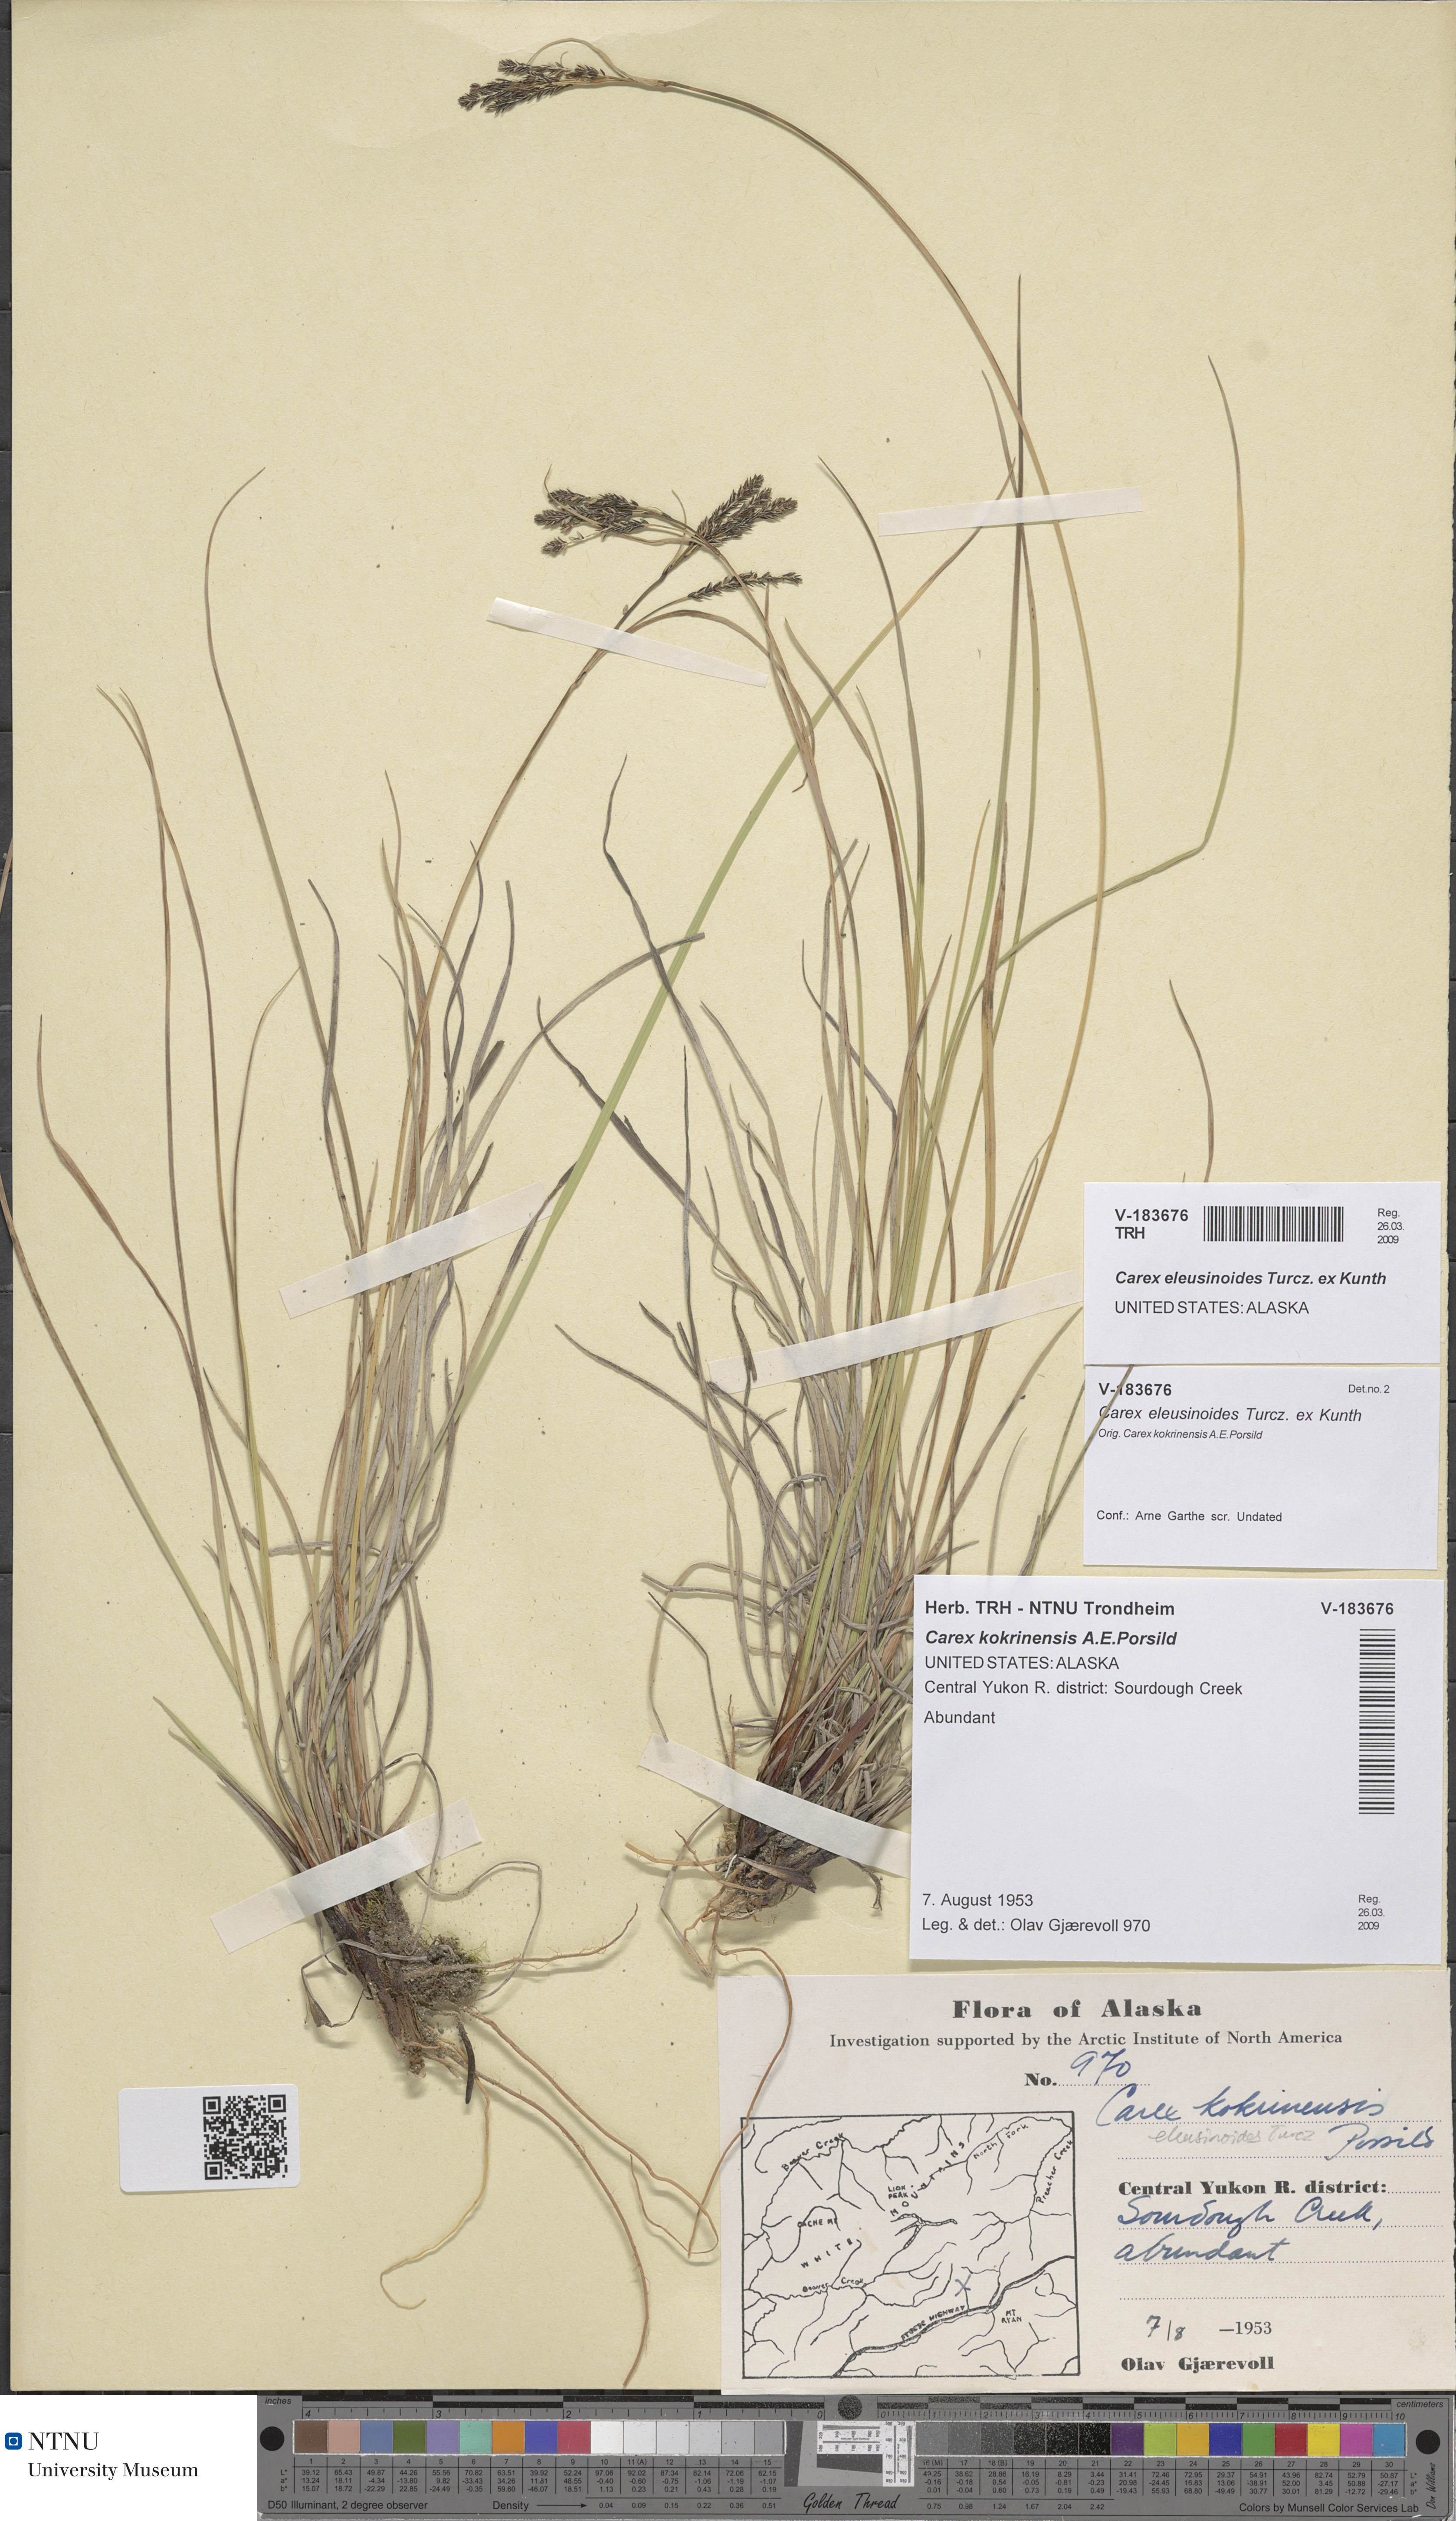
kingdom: Plantae
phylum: Tracheophyta
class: Liliopsida
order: Poales
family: Cyperaceae
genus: Carex
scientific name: Carex eleusinoides
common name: Goosegrass sedge
